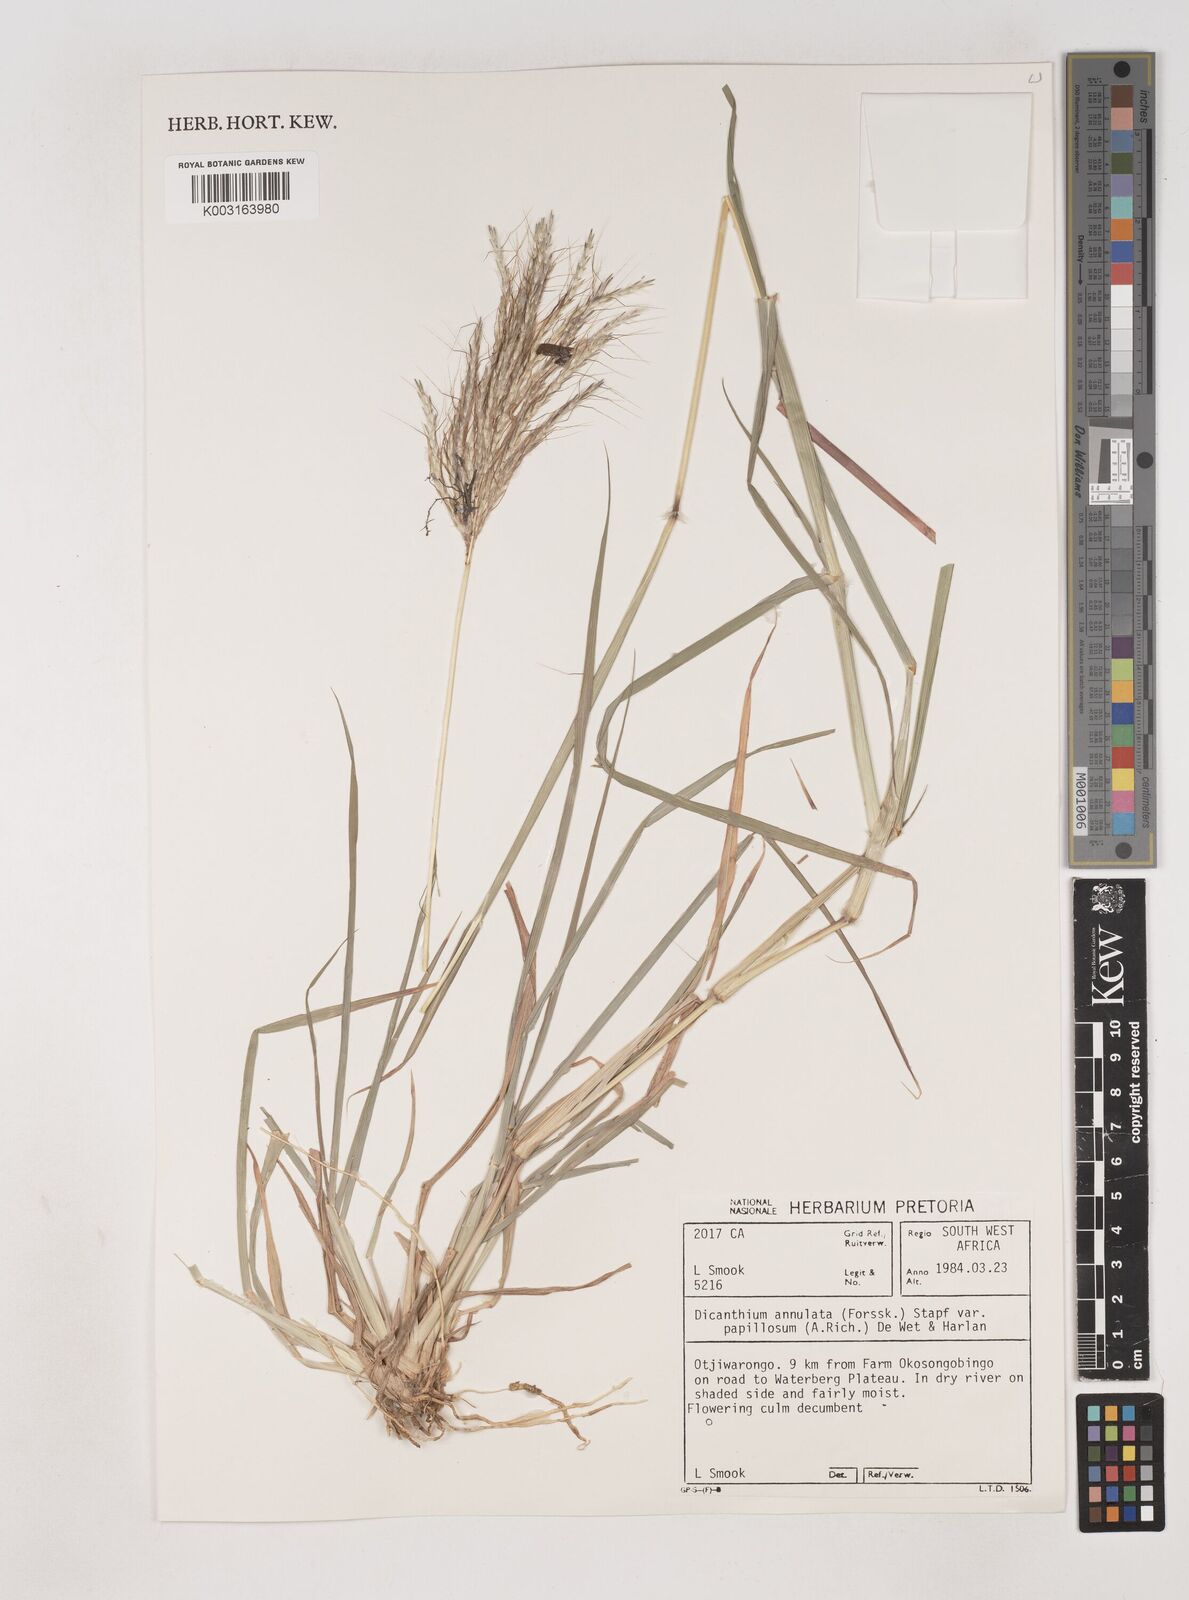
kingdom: Plantae
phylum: Tracheophyta
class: Liliopsida
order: Poales
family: Poaceae
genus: Dichanthium
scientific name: Dichanthium annulatum
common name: Kleberg's bluestem
